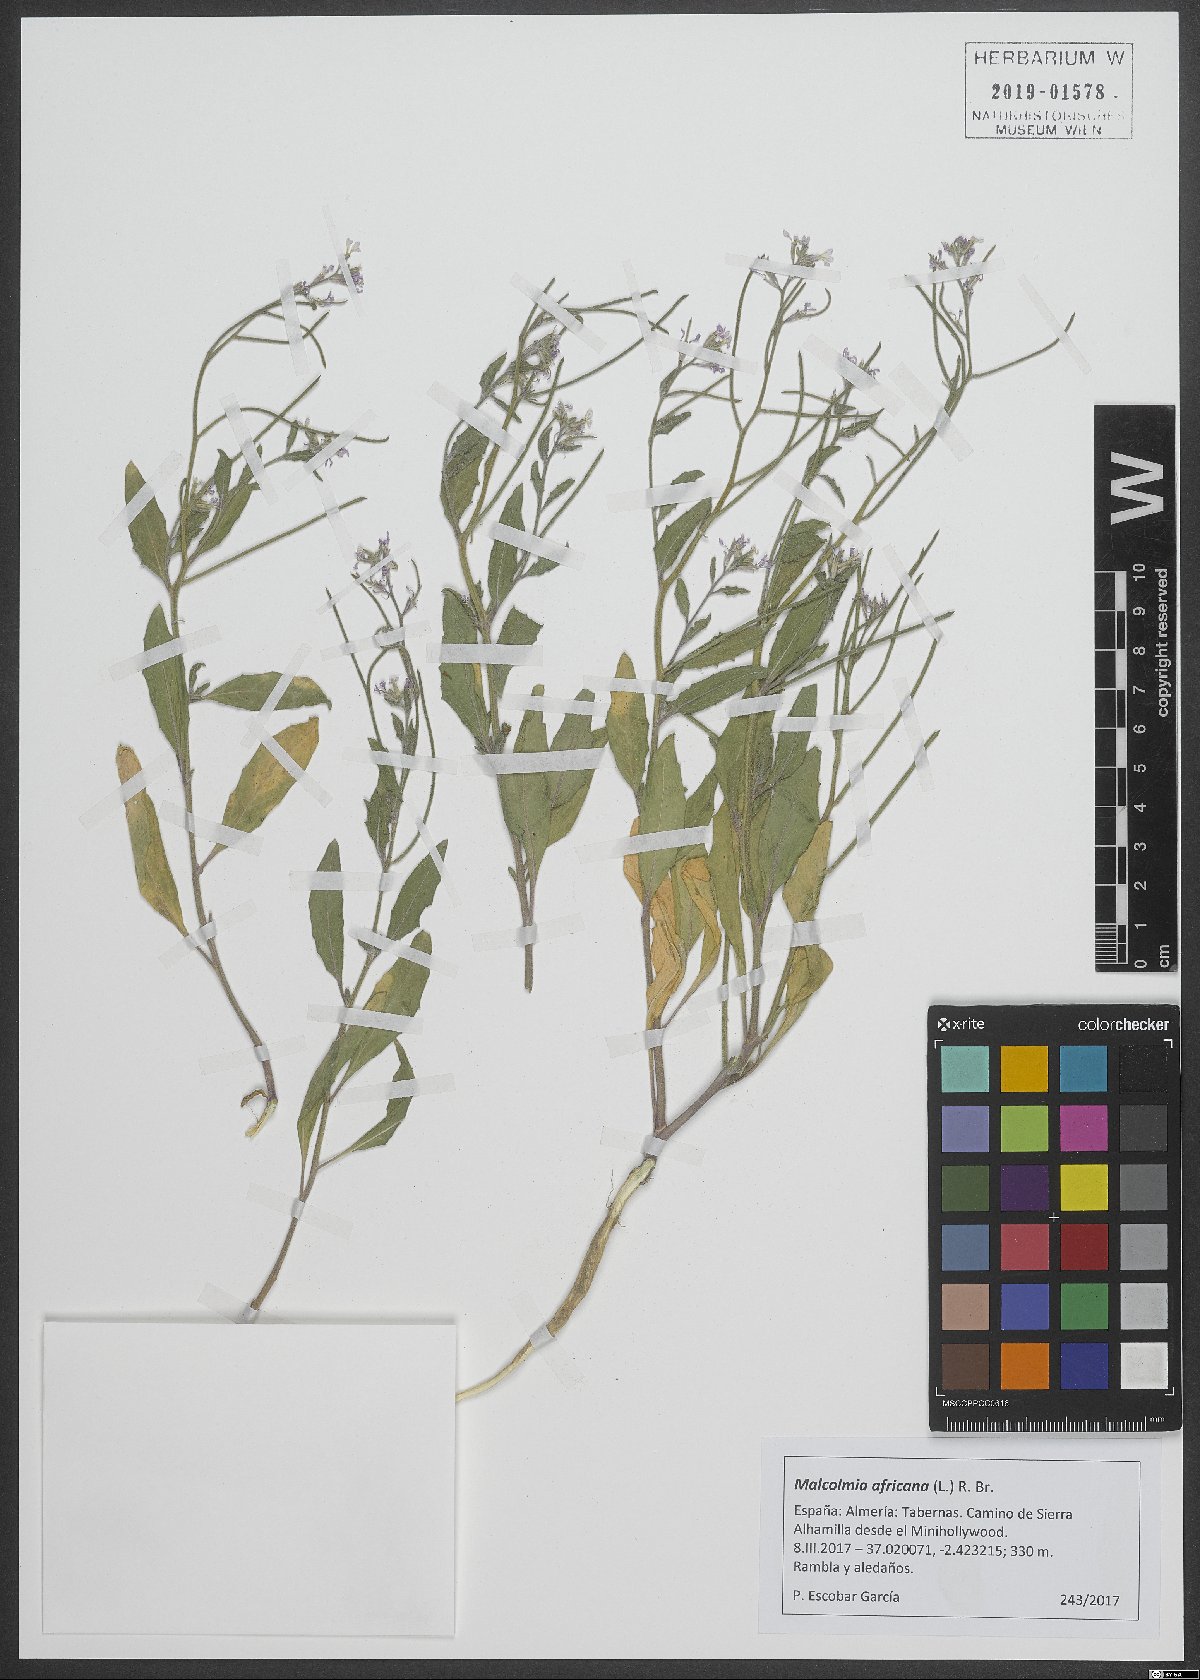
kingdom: Plantae
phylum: Tracheophyta
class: Magnoliopsida
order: Brassicales
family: Brassicaceae
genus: Malcolmia
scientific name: Malcolmia africana
